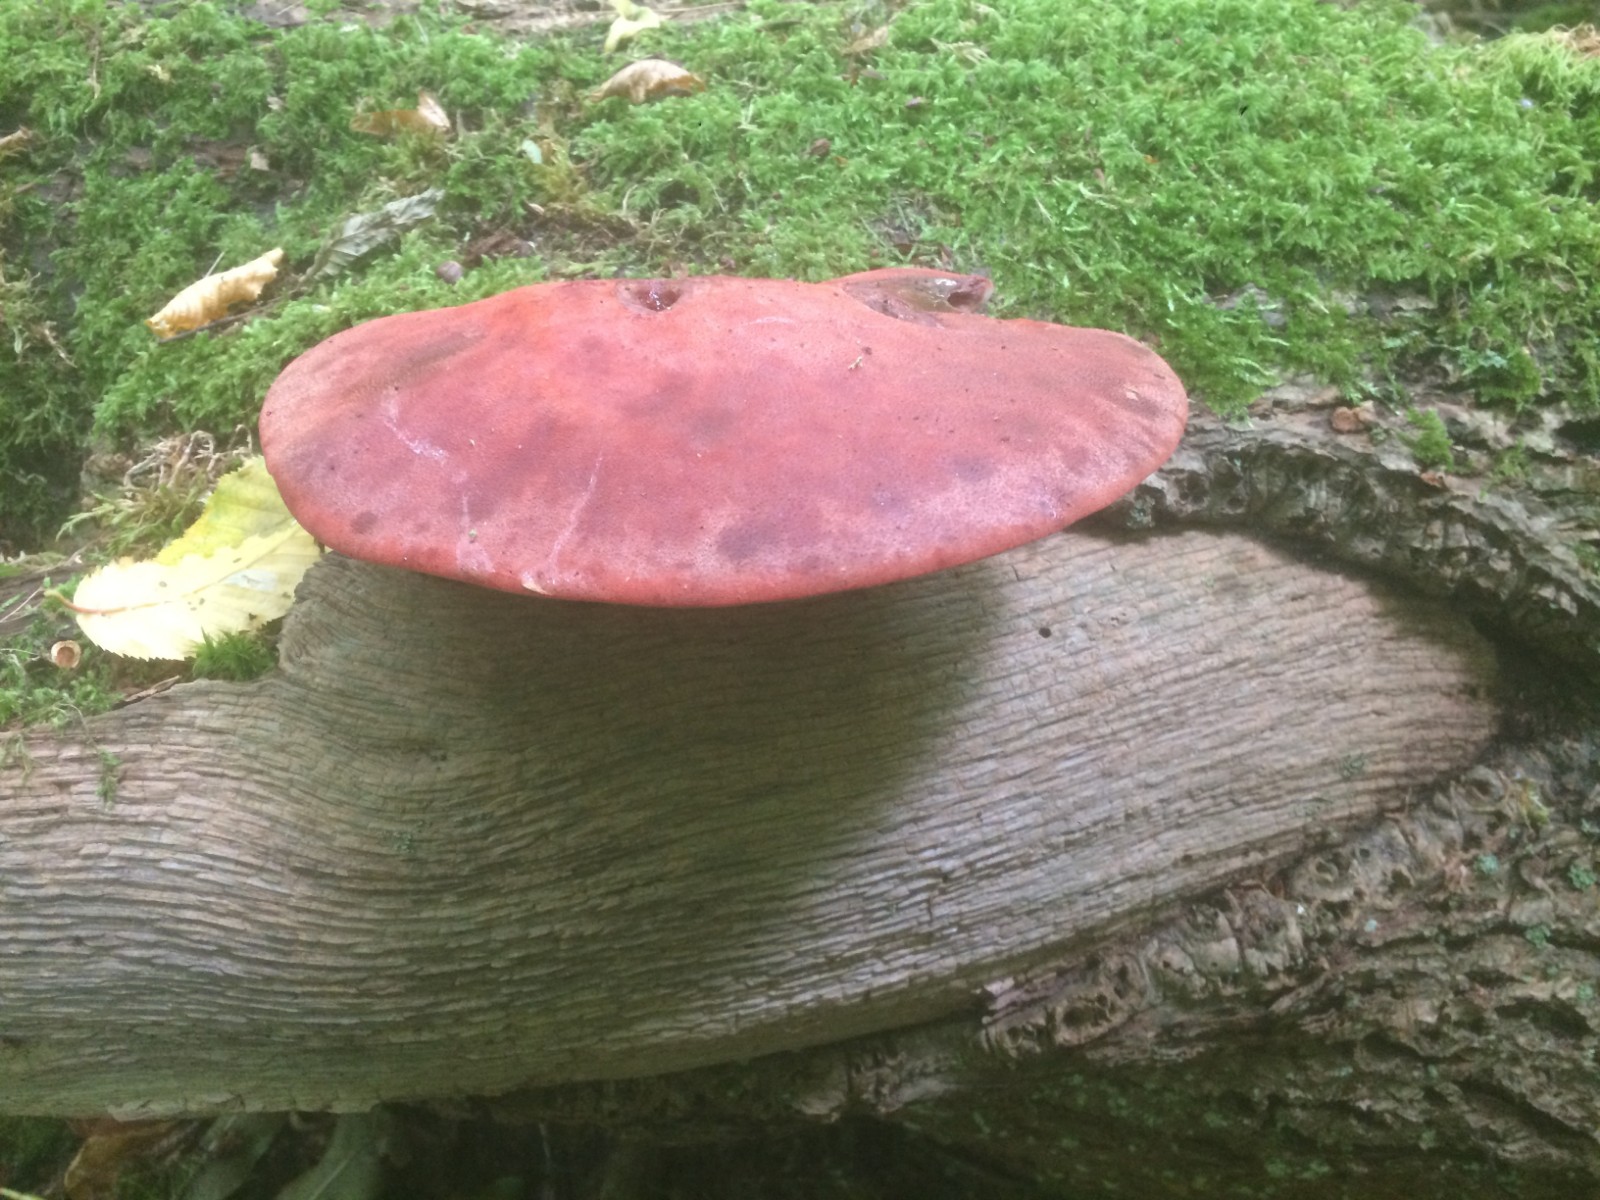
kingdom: Fungi
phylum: Basidiomycota
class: Agaricomycetes
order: Agaricales
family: Fistulinaceae
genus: Fistulina
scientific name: Fistulina hepatica
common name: oksetunge
